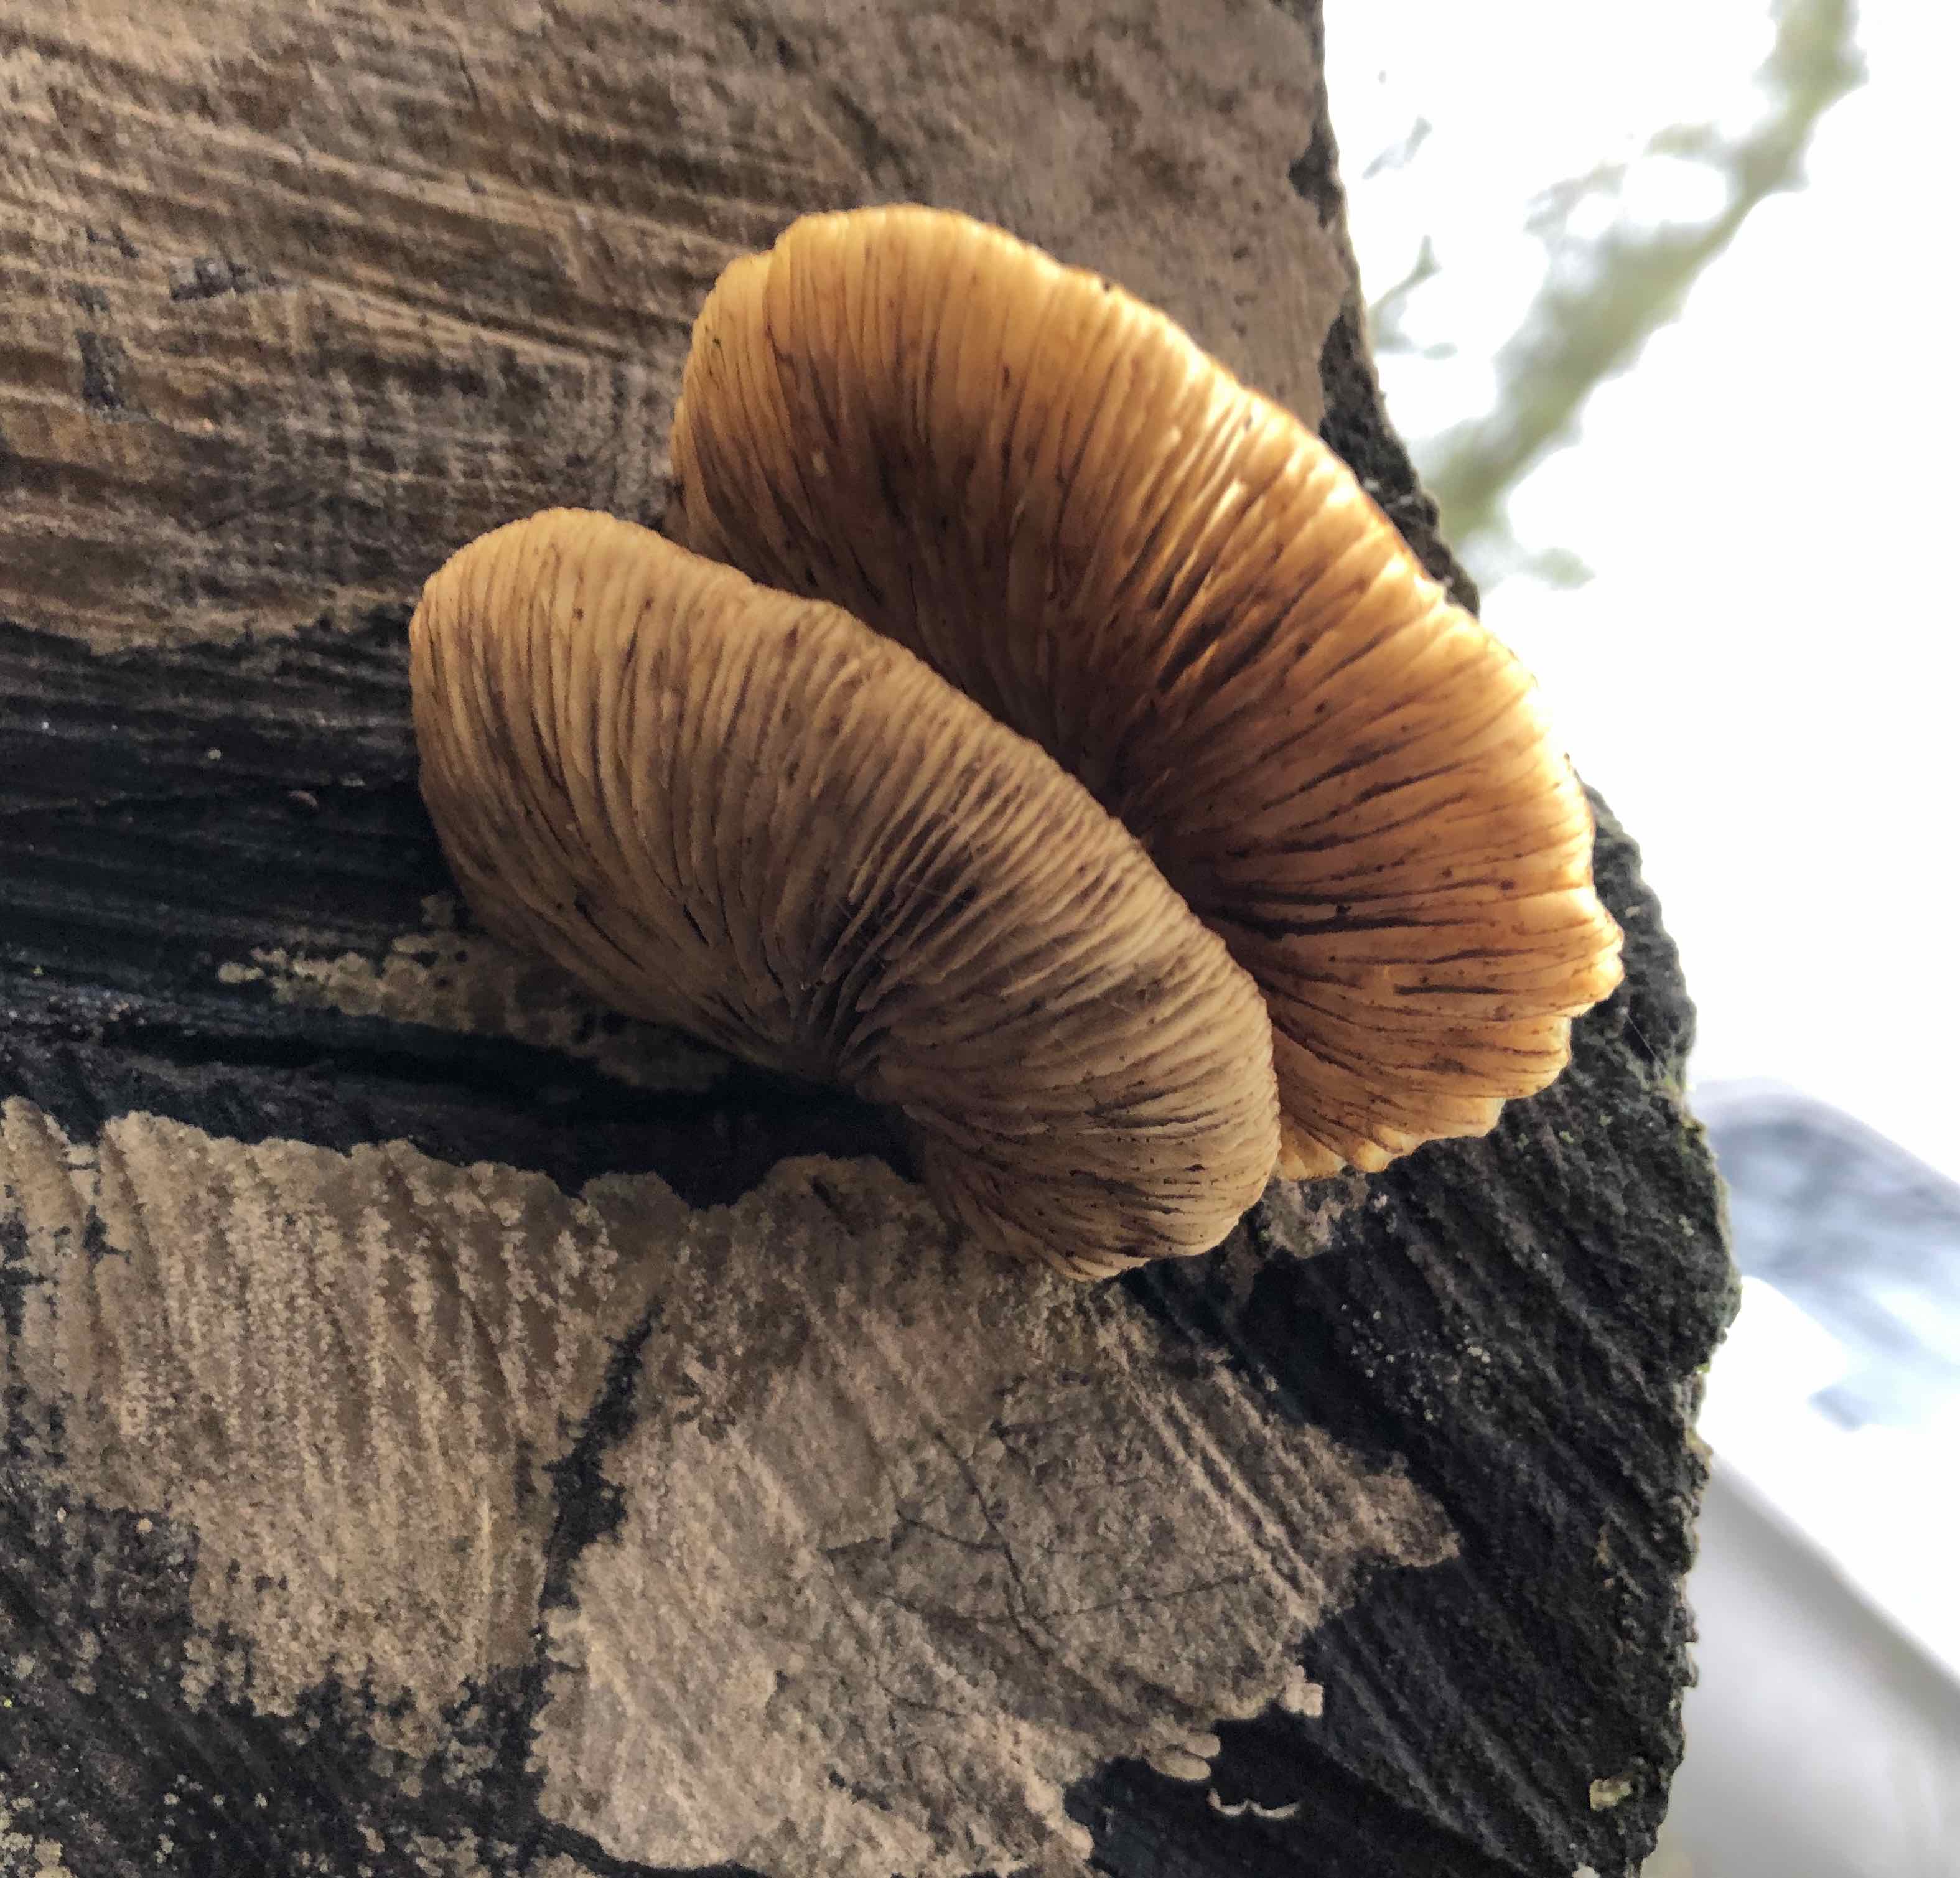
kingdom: Fungi
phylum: Basidiomycota
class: Agaricomycetes
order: Agaricales
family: Crepidotaceae
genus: Crepidotus
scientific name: Crepidotus mollis
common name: blød muslingesvamp
